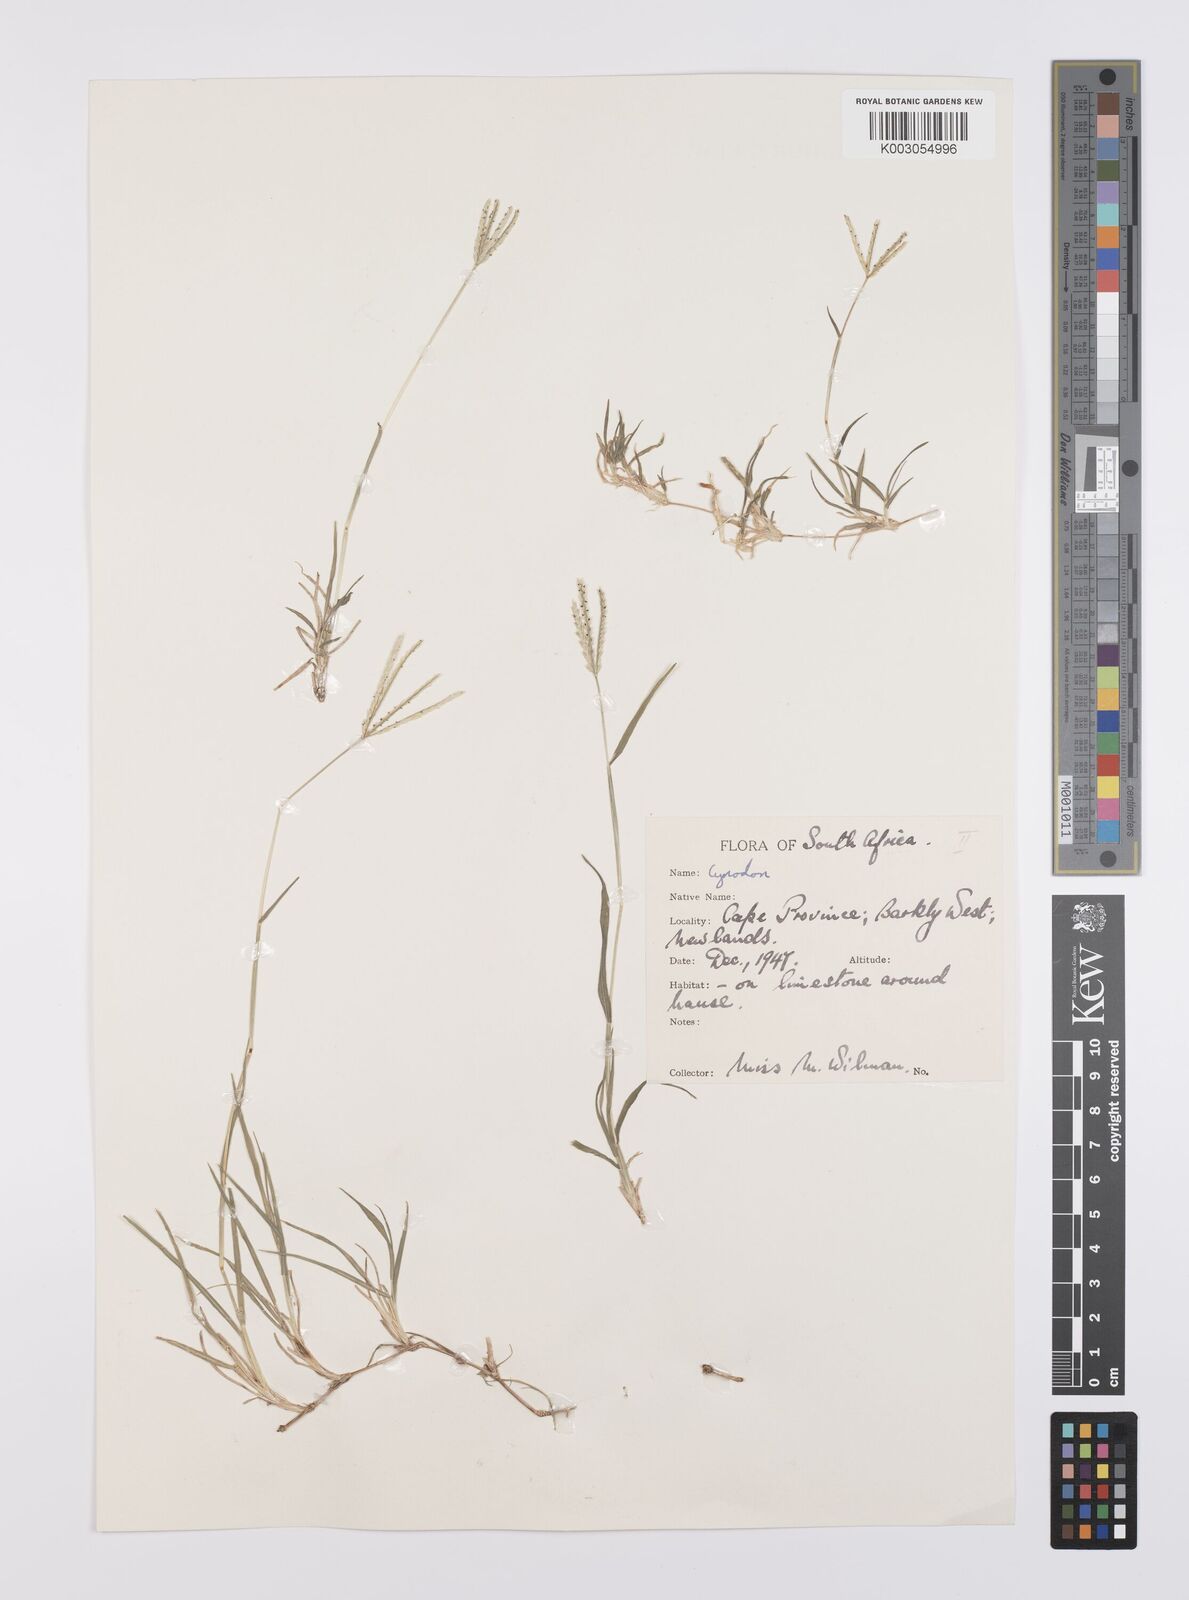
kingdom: Plantae
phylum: Tracheophyta
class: Liliopsida
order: Poales
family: Poaceae
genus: Cynodon
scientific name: Cynodon incompletus
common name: African bermuda-grass
